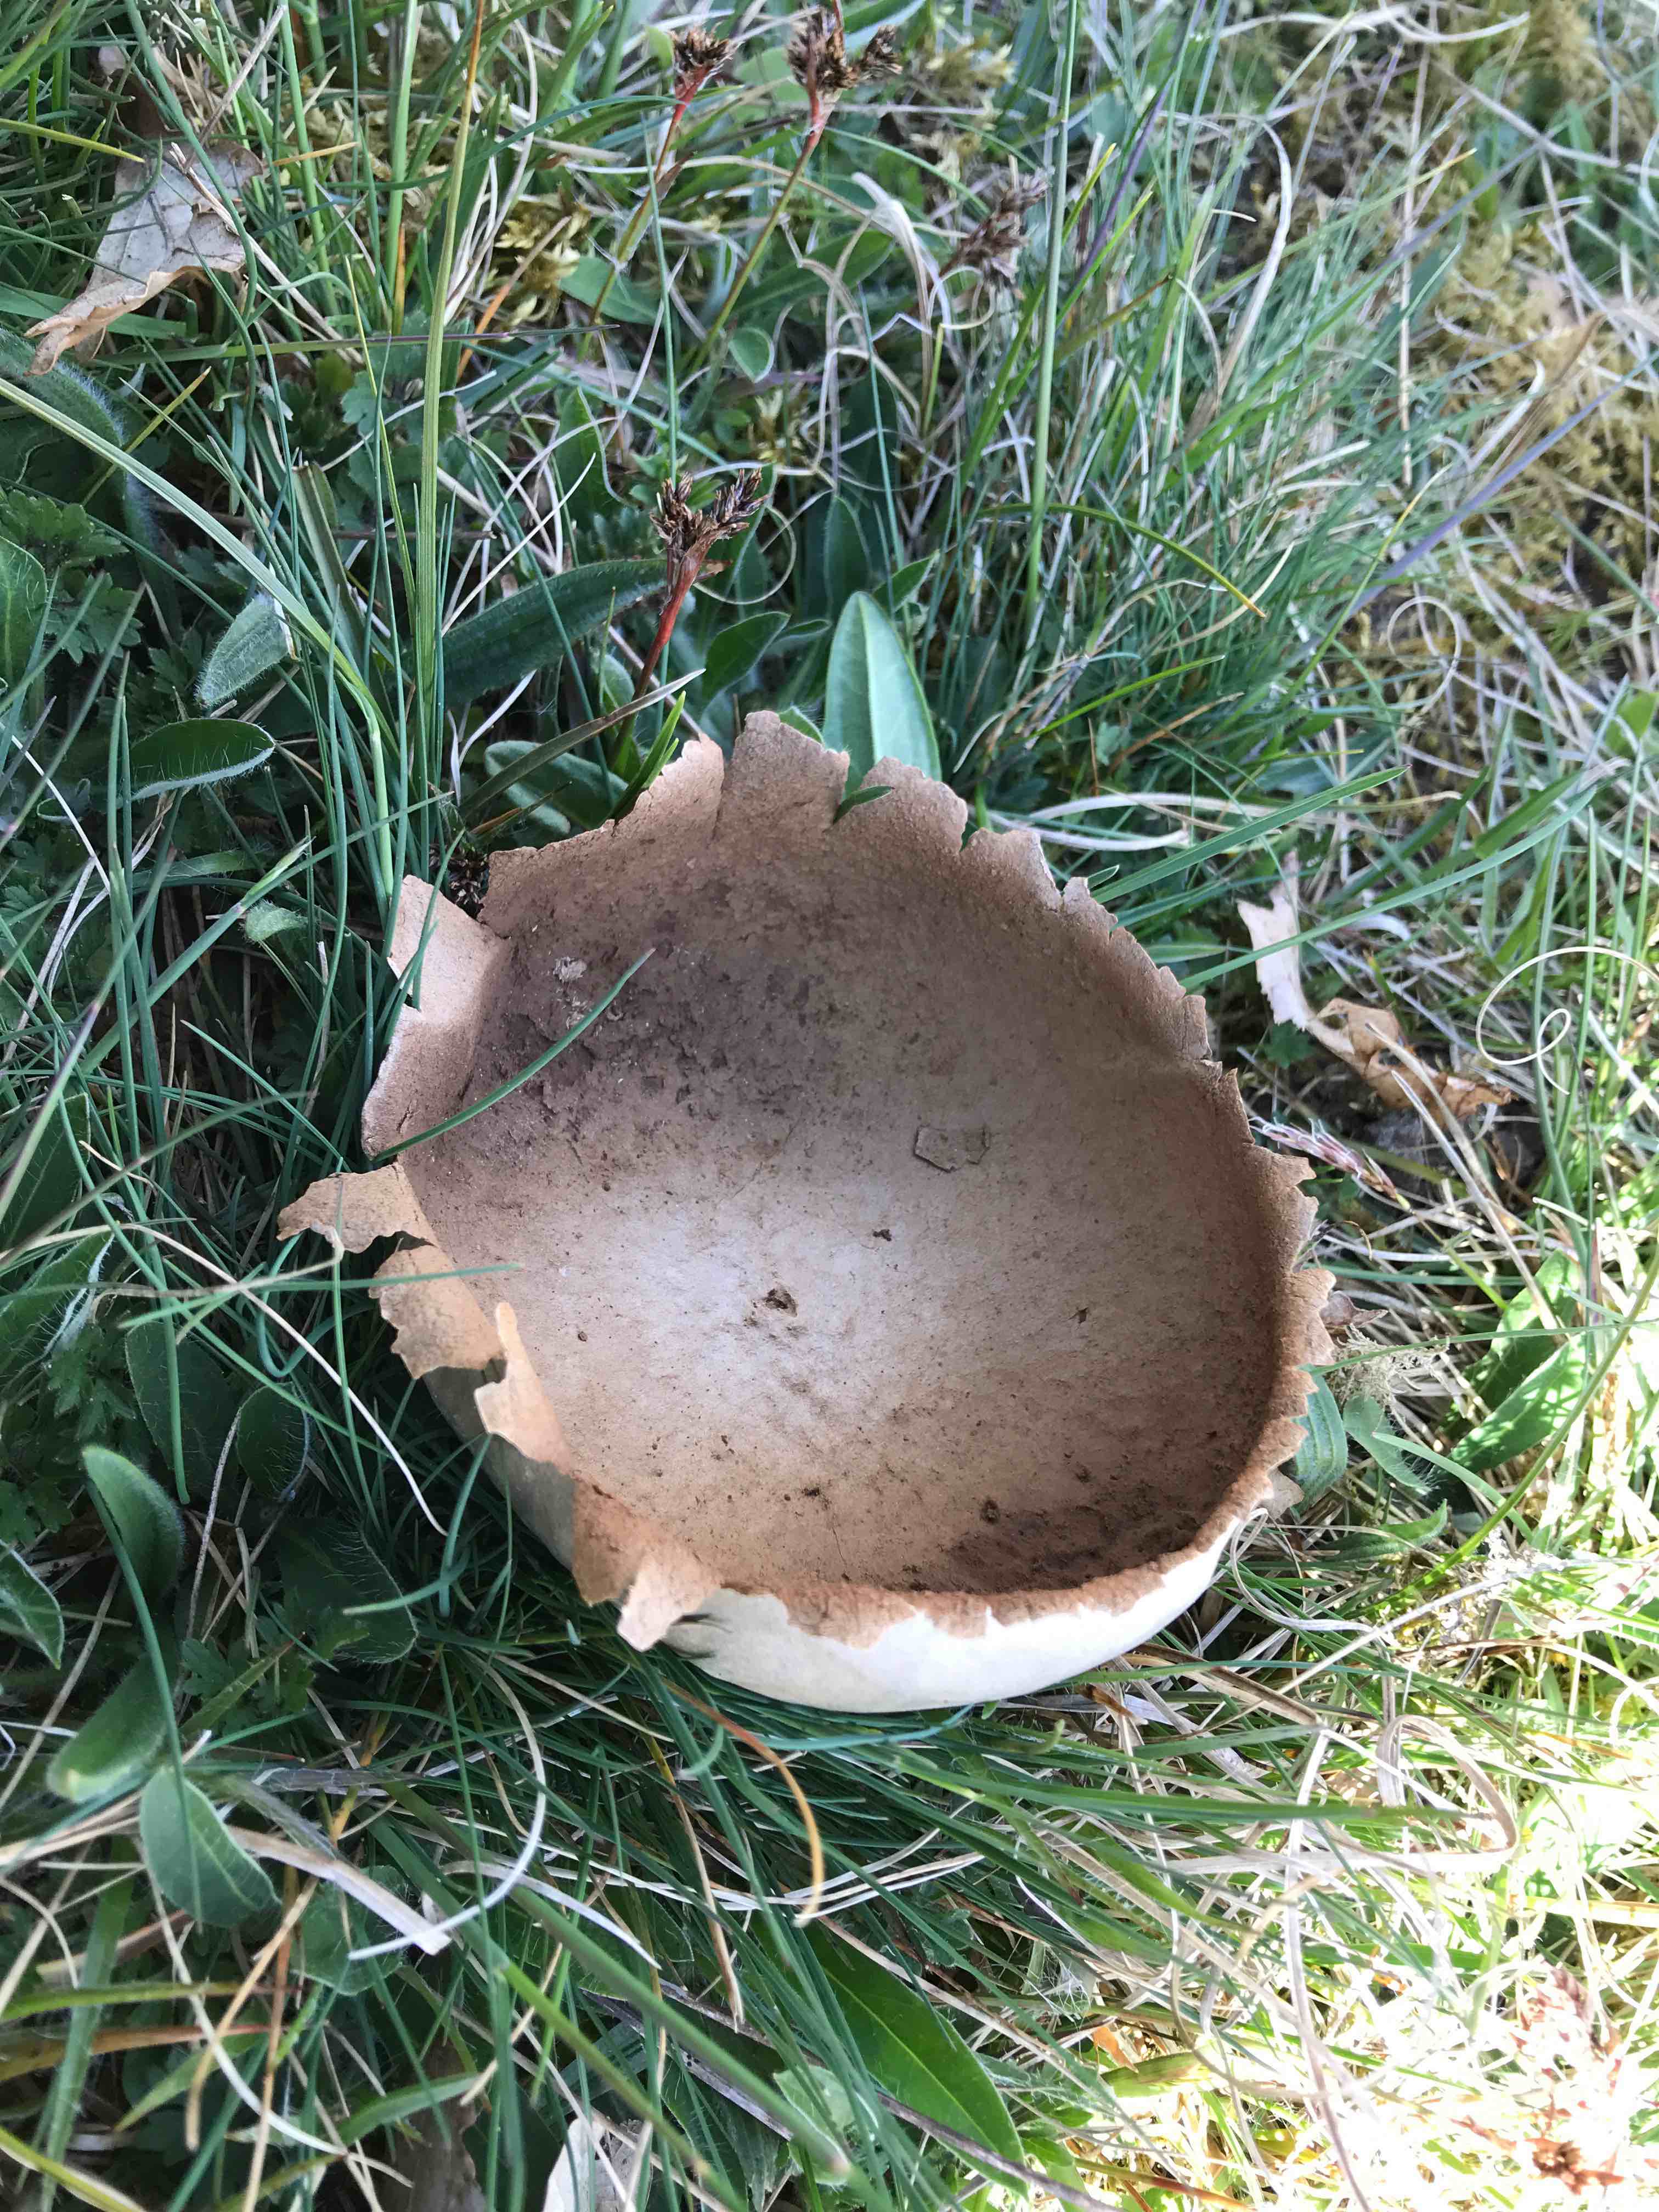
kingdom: Fungi
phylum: Basidiomycota
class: Agaricomycetes
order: Agaricales
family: Lycoperdaceae
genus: Bovistella
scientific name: Bovistella utriformis
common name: skællet støvbold
